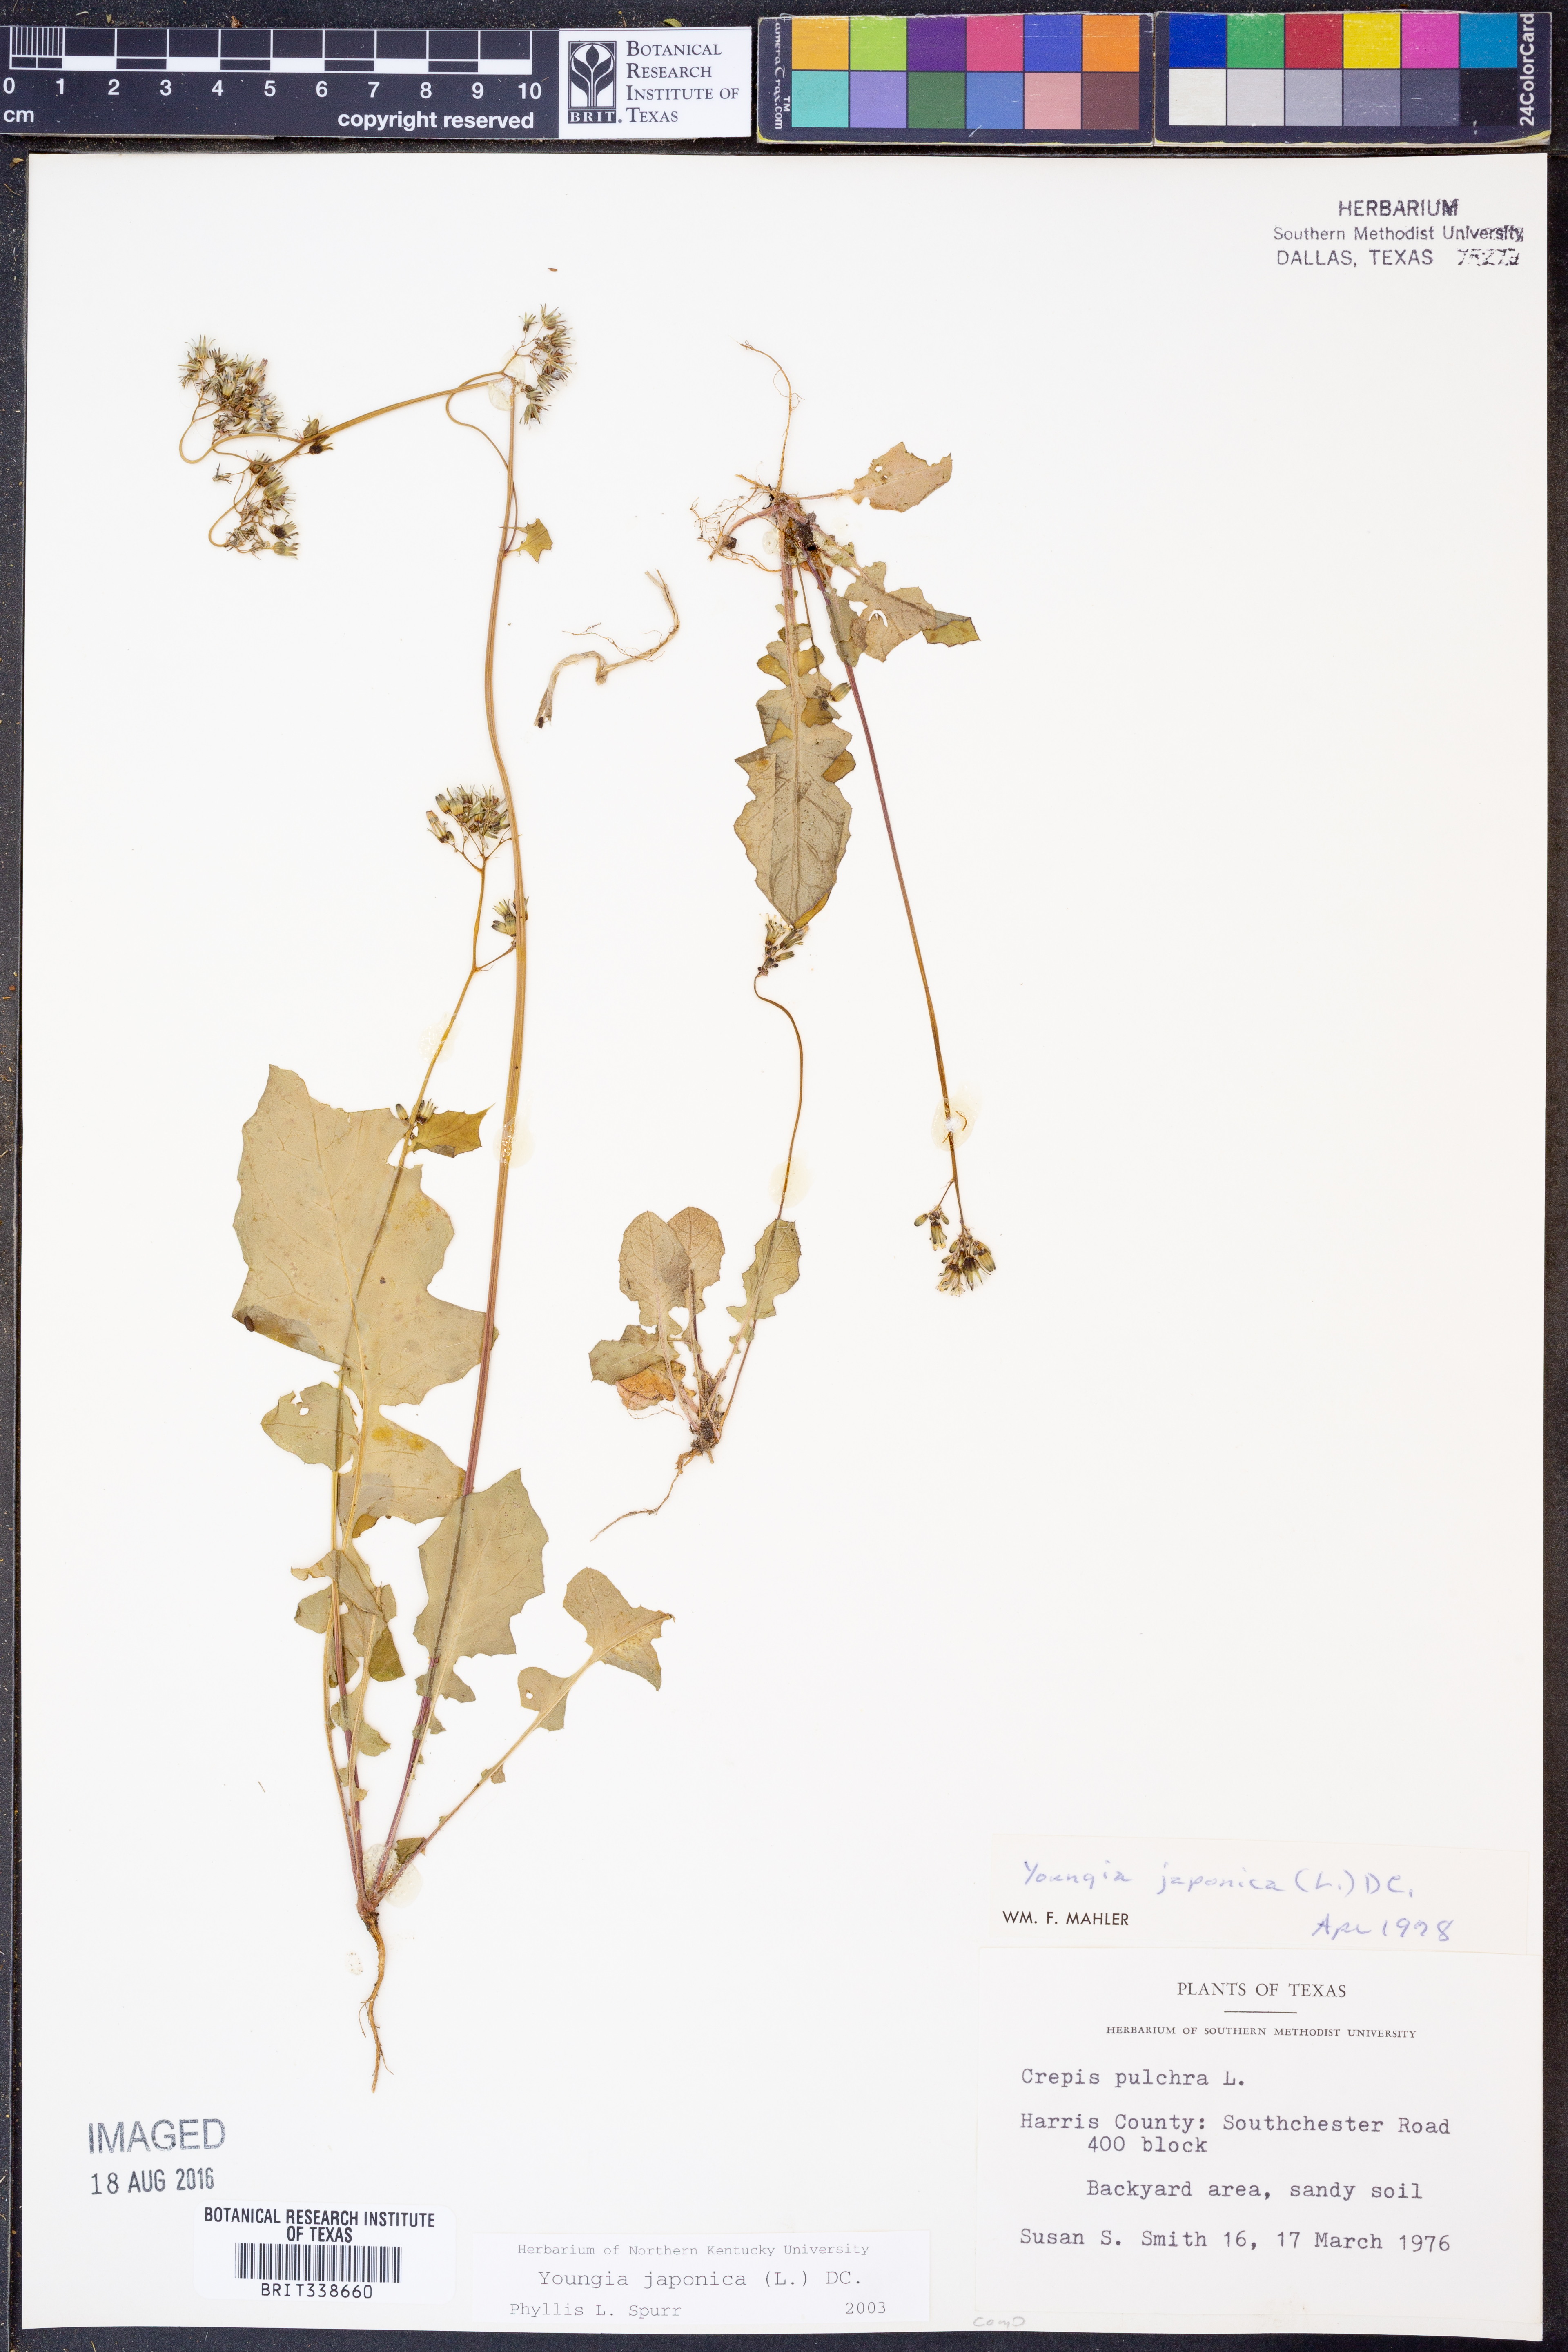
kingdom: Plantae
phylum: Tracheophyta
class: Magnoliopsida
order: Asterales
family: Asteraceae
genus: Youngia
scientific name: Youngia japonica
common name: Oriental false hawksbeard
